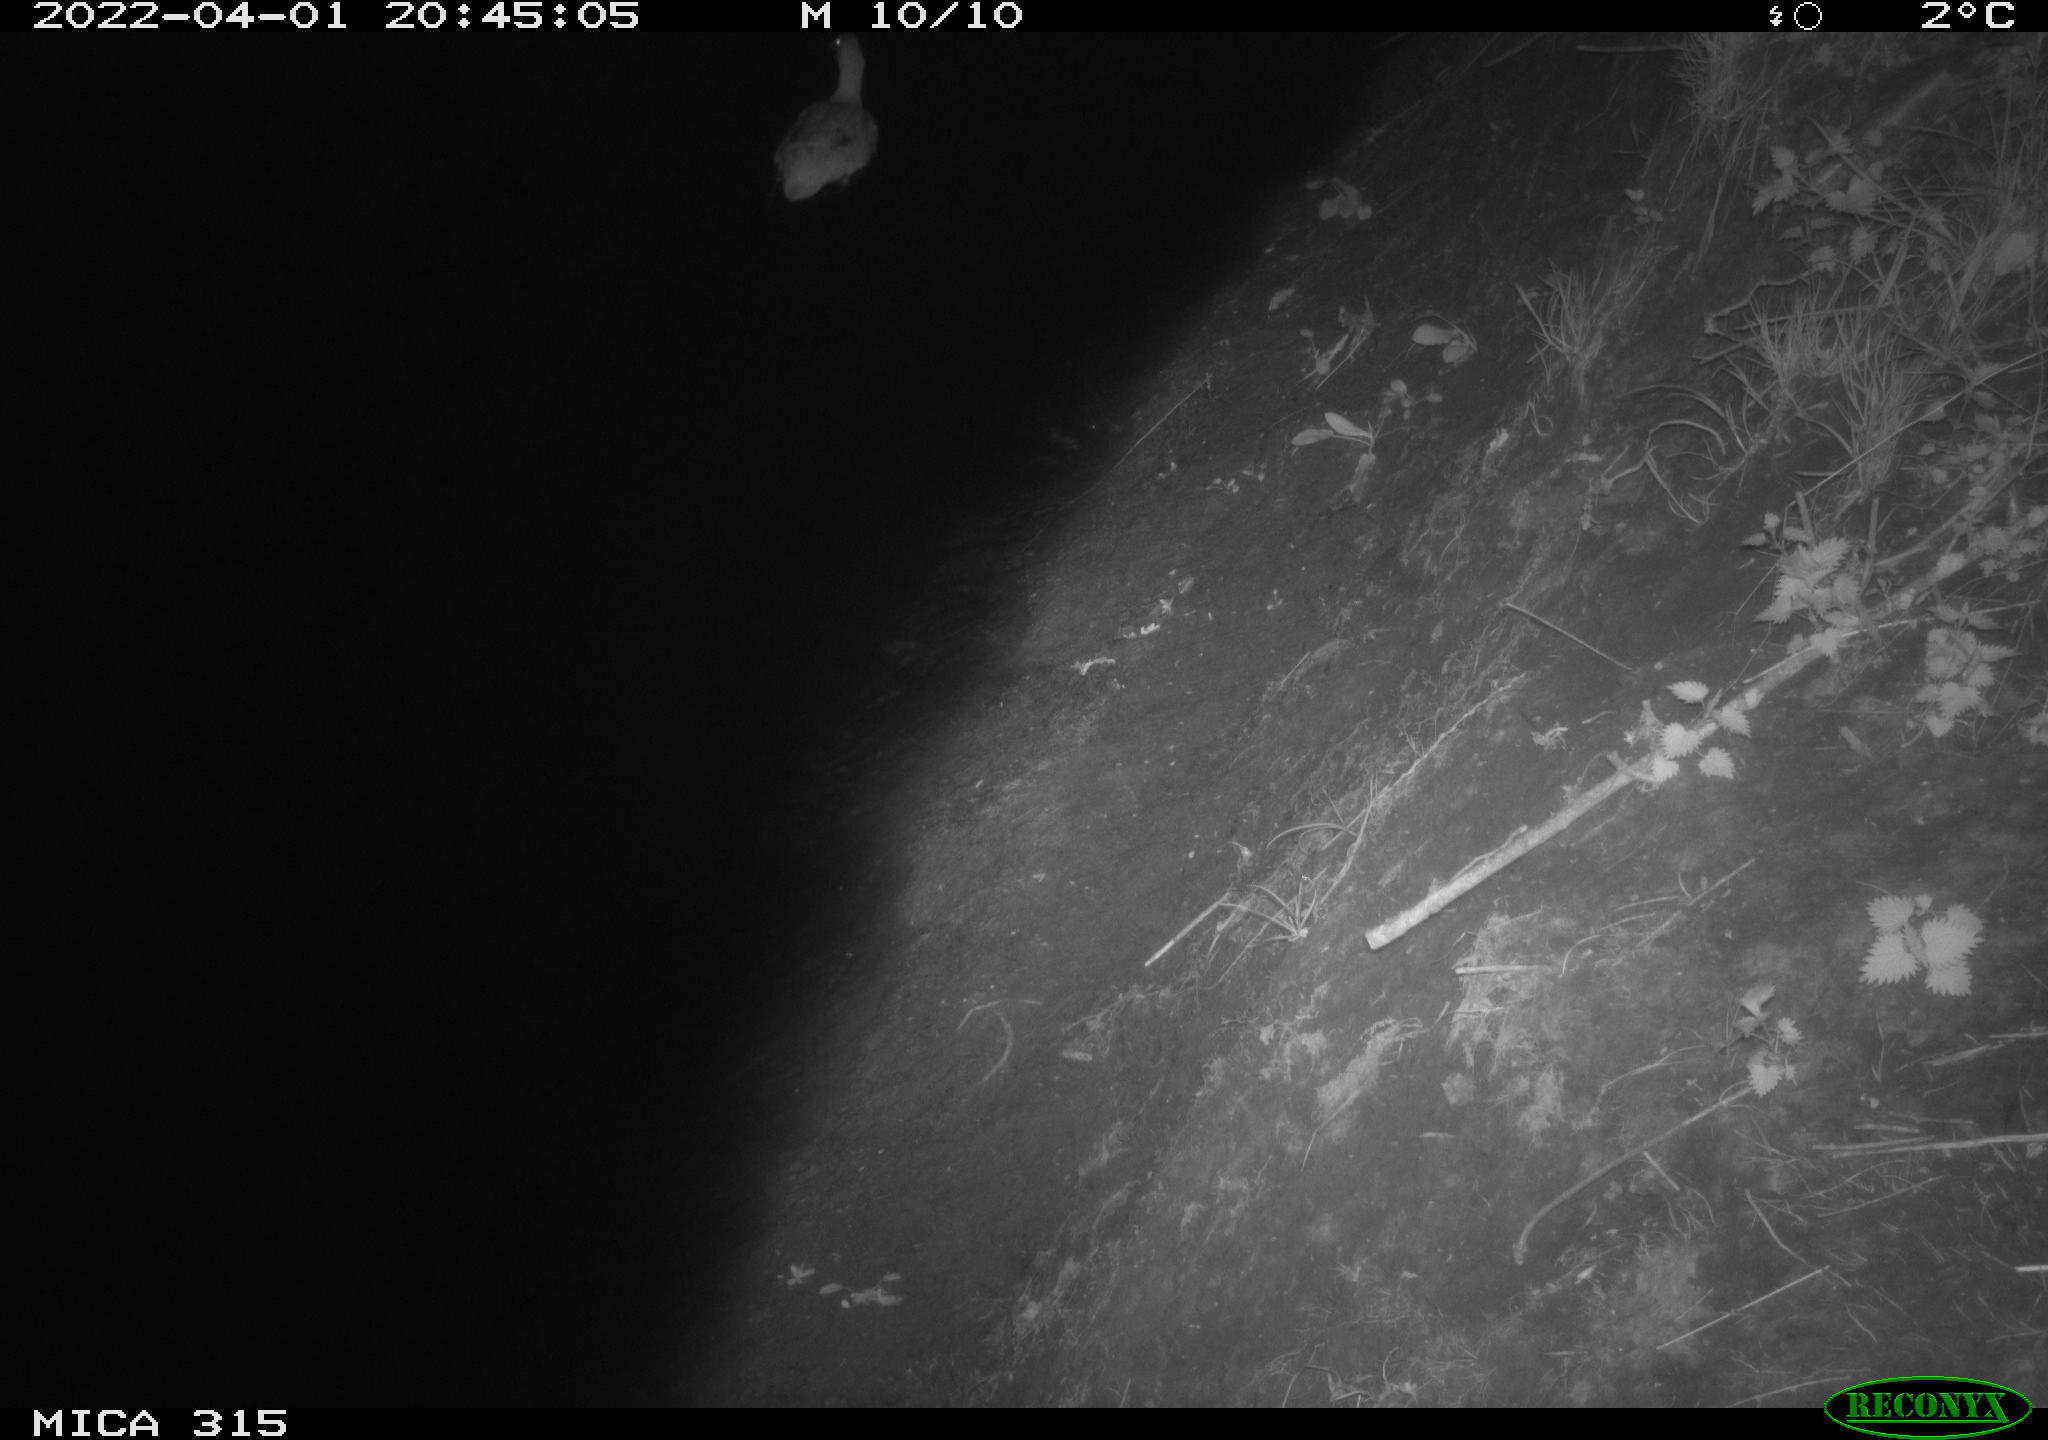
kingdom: Animalia
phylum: Chordata
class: Aves
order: Anseriformes
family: Anatidae
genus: Anas
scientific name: Anas platyrhynchos
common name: Mallard
